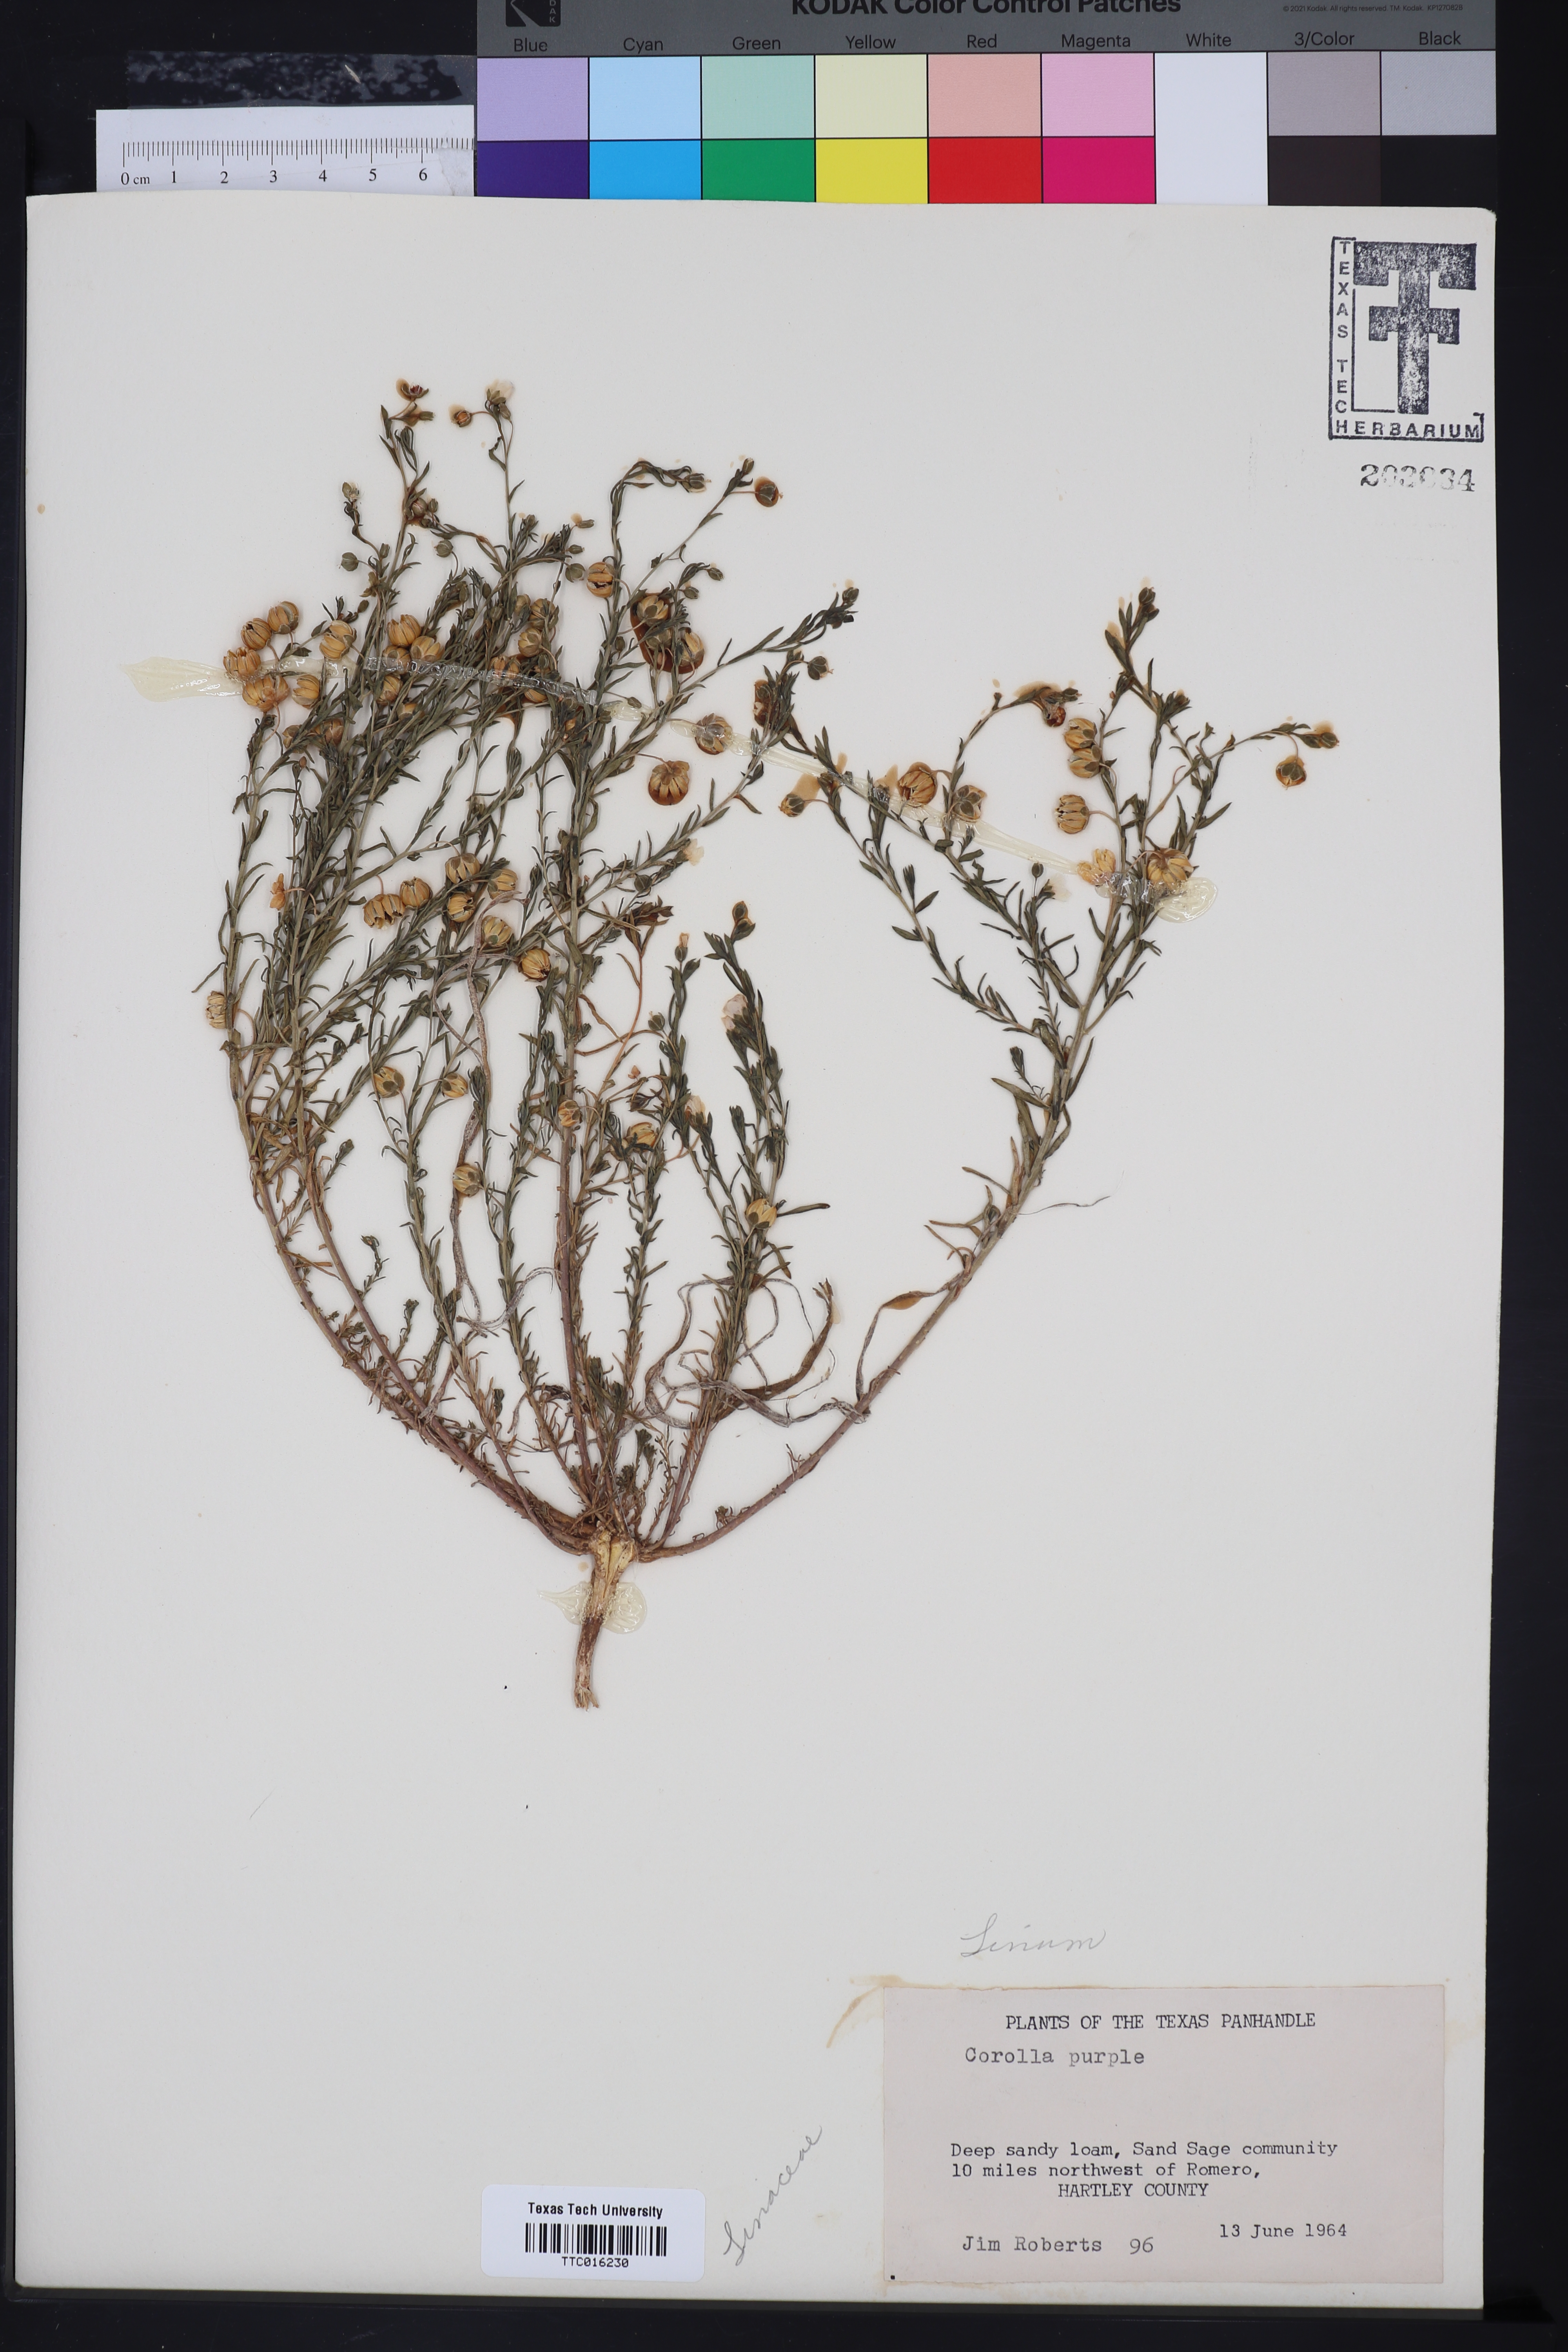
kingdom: Plantae
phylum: Tracheophyta
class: Magnoliopsida
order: Malpighiales
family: Linaceae
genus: Linum
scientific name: Linum
